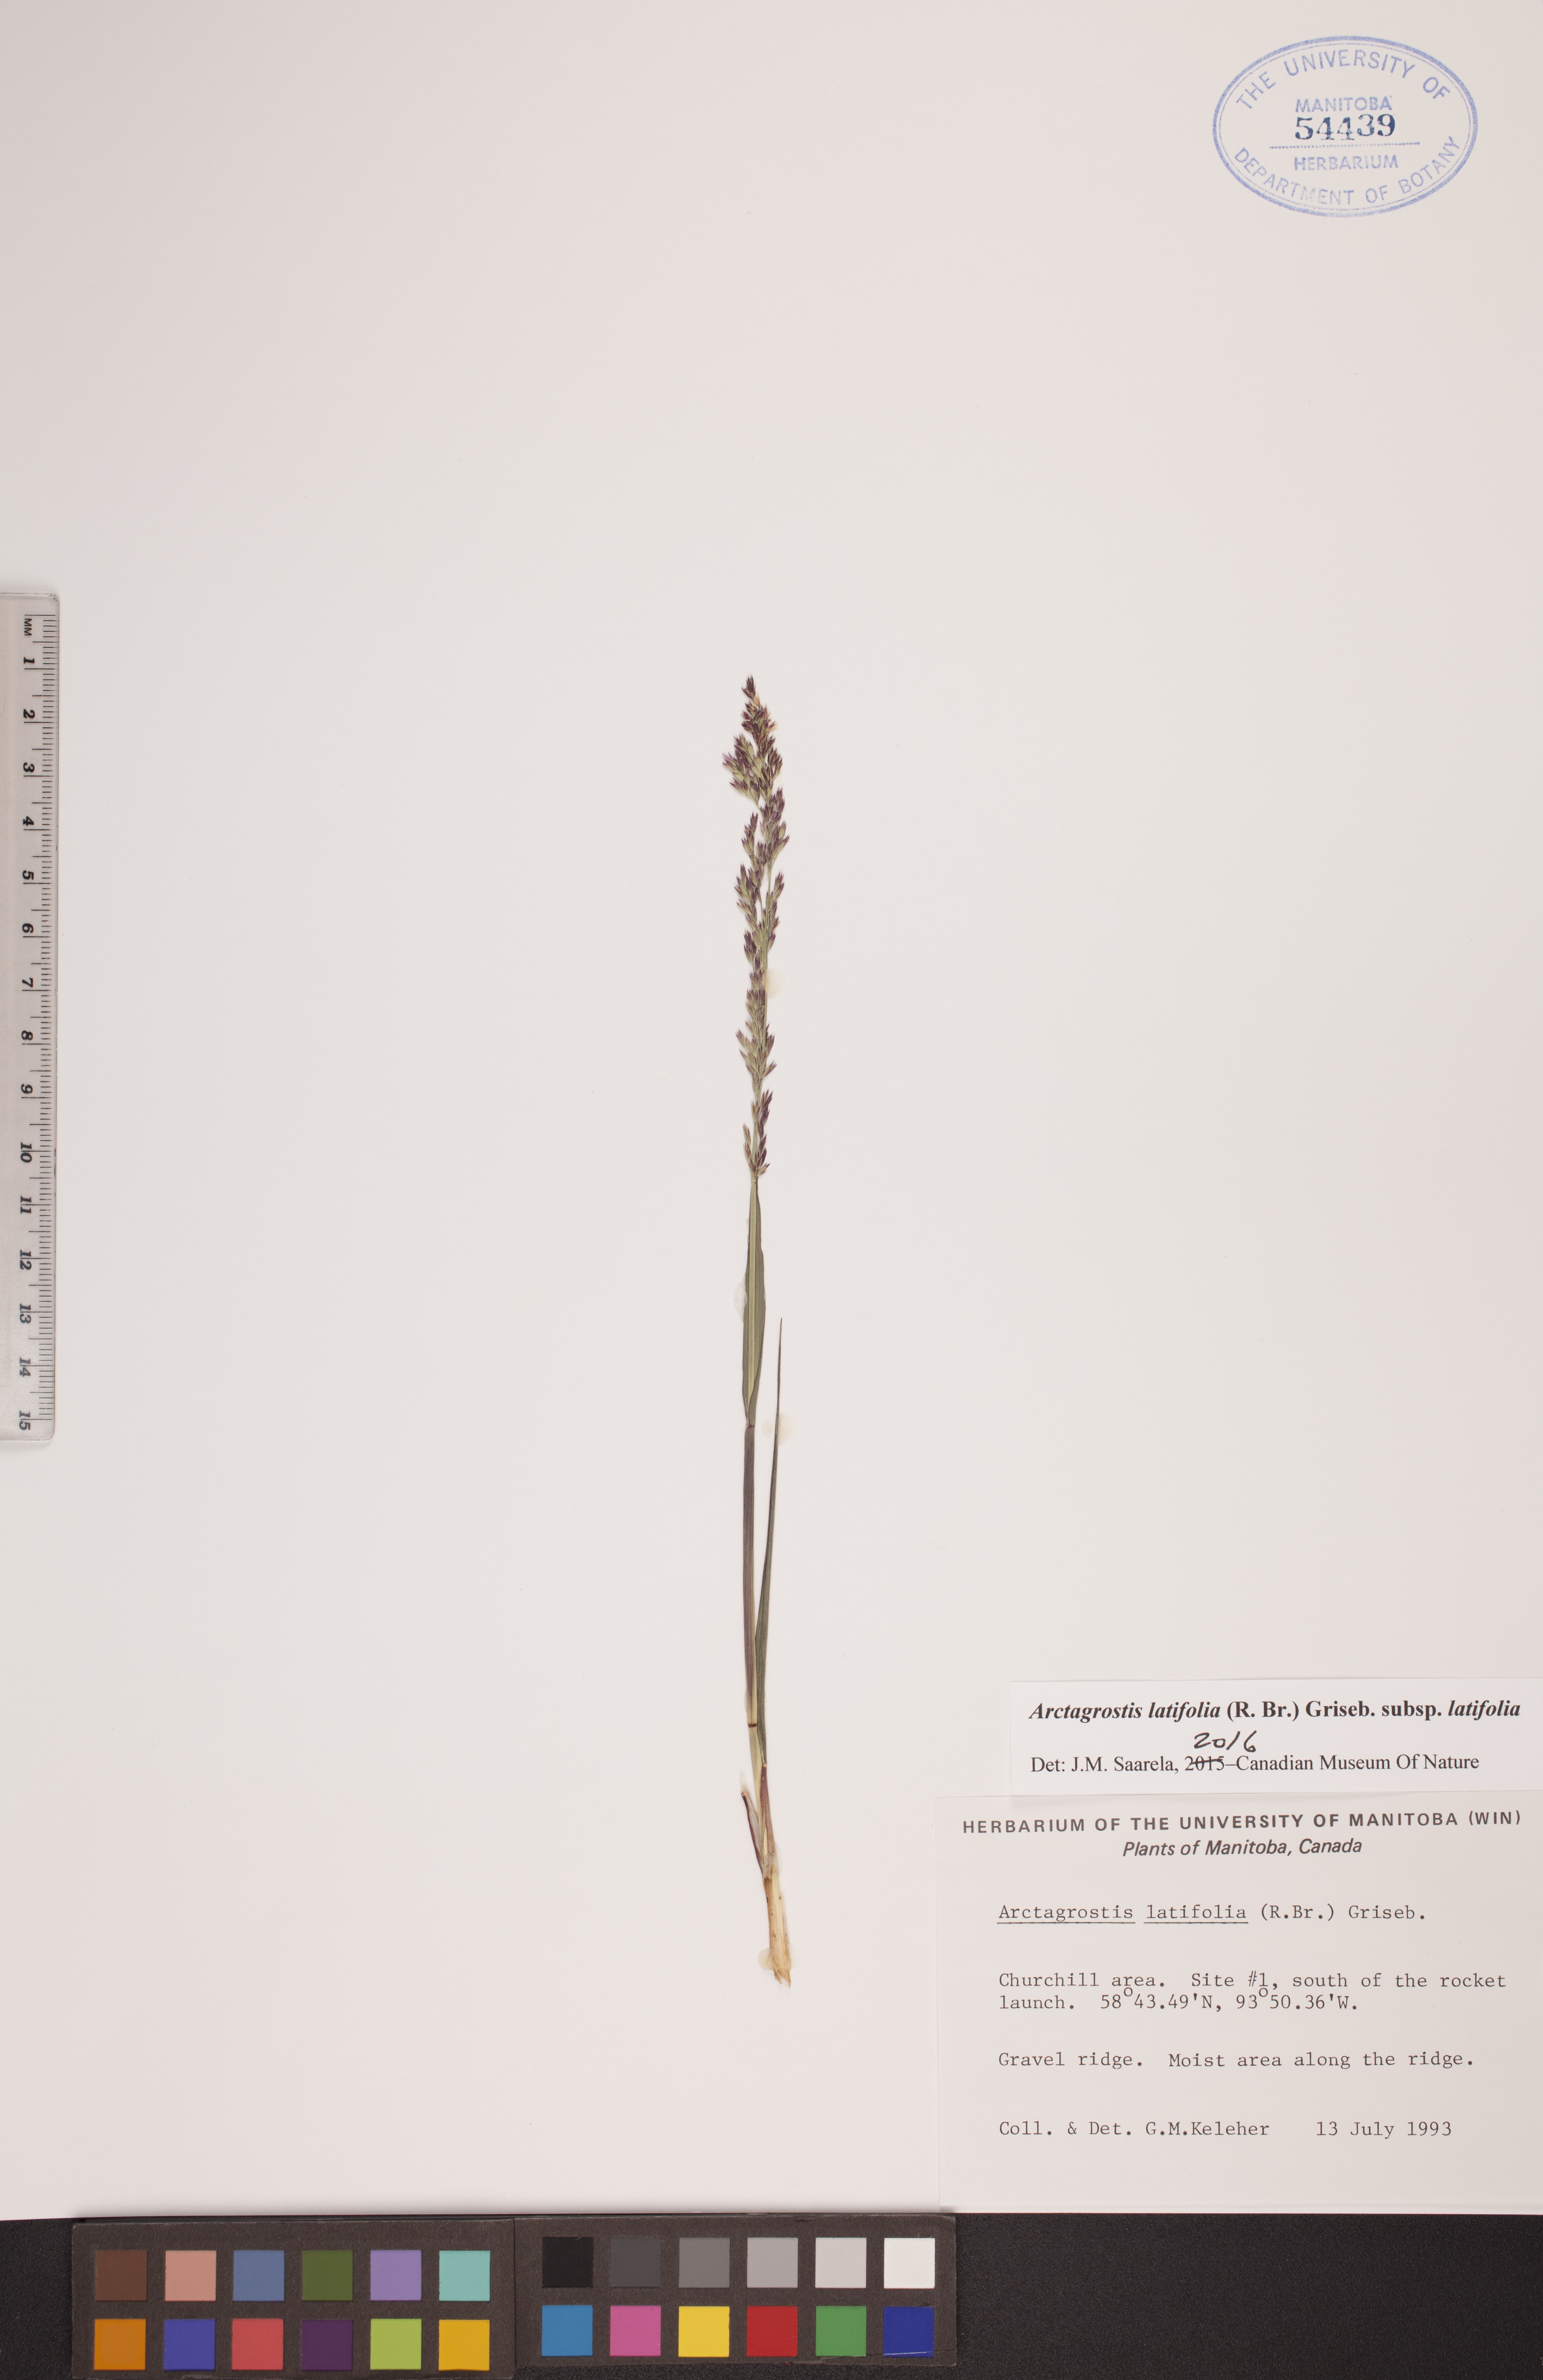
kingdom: Plantae
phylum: Tracheophyta
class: Liliopsida
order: Poales
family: Poaceae
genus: Arctagrostis
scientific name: Arctagrostis latifolia
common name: Arctic grass
